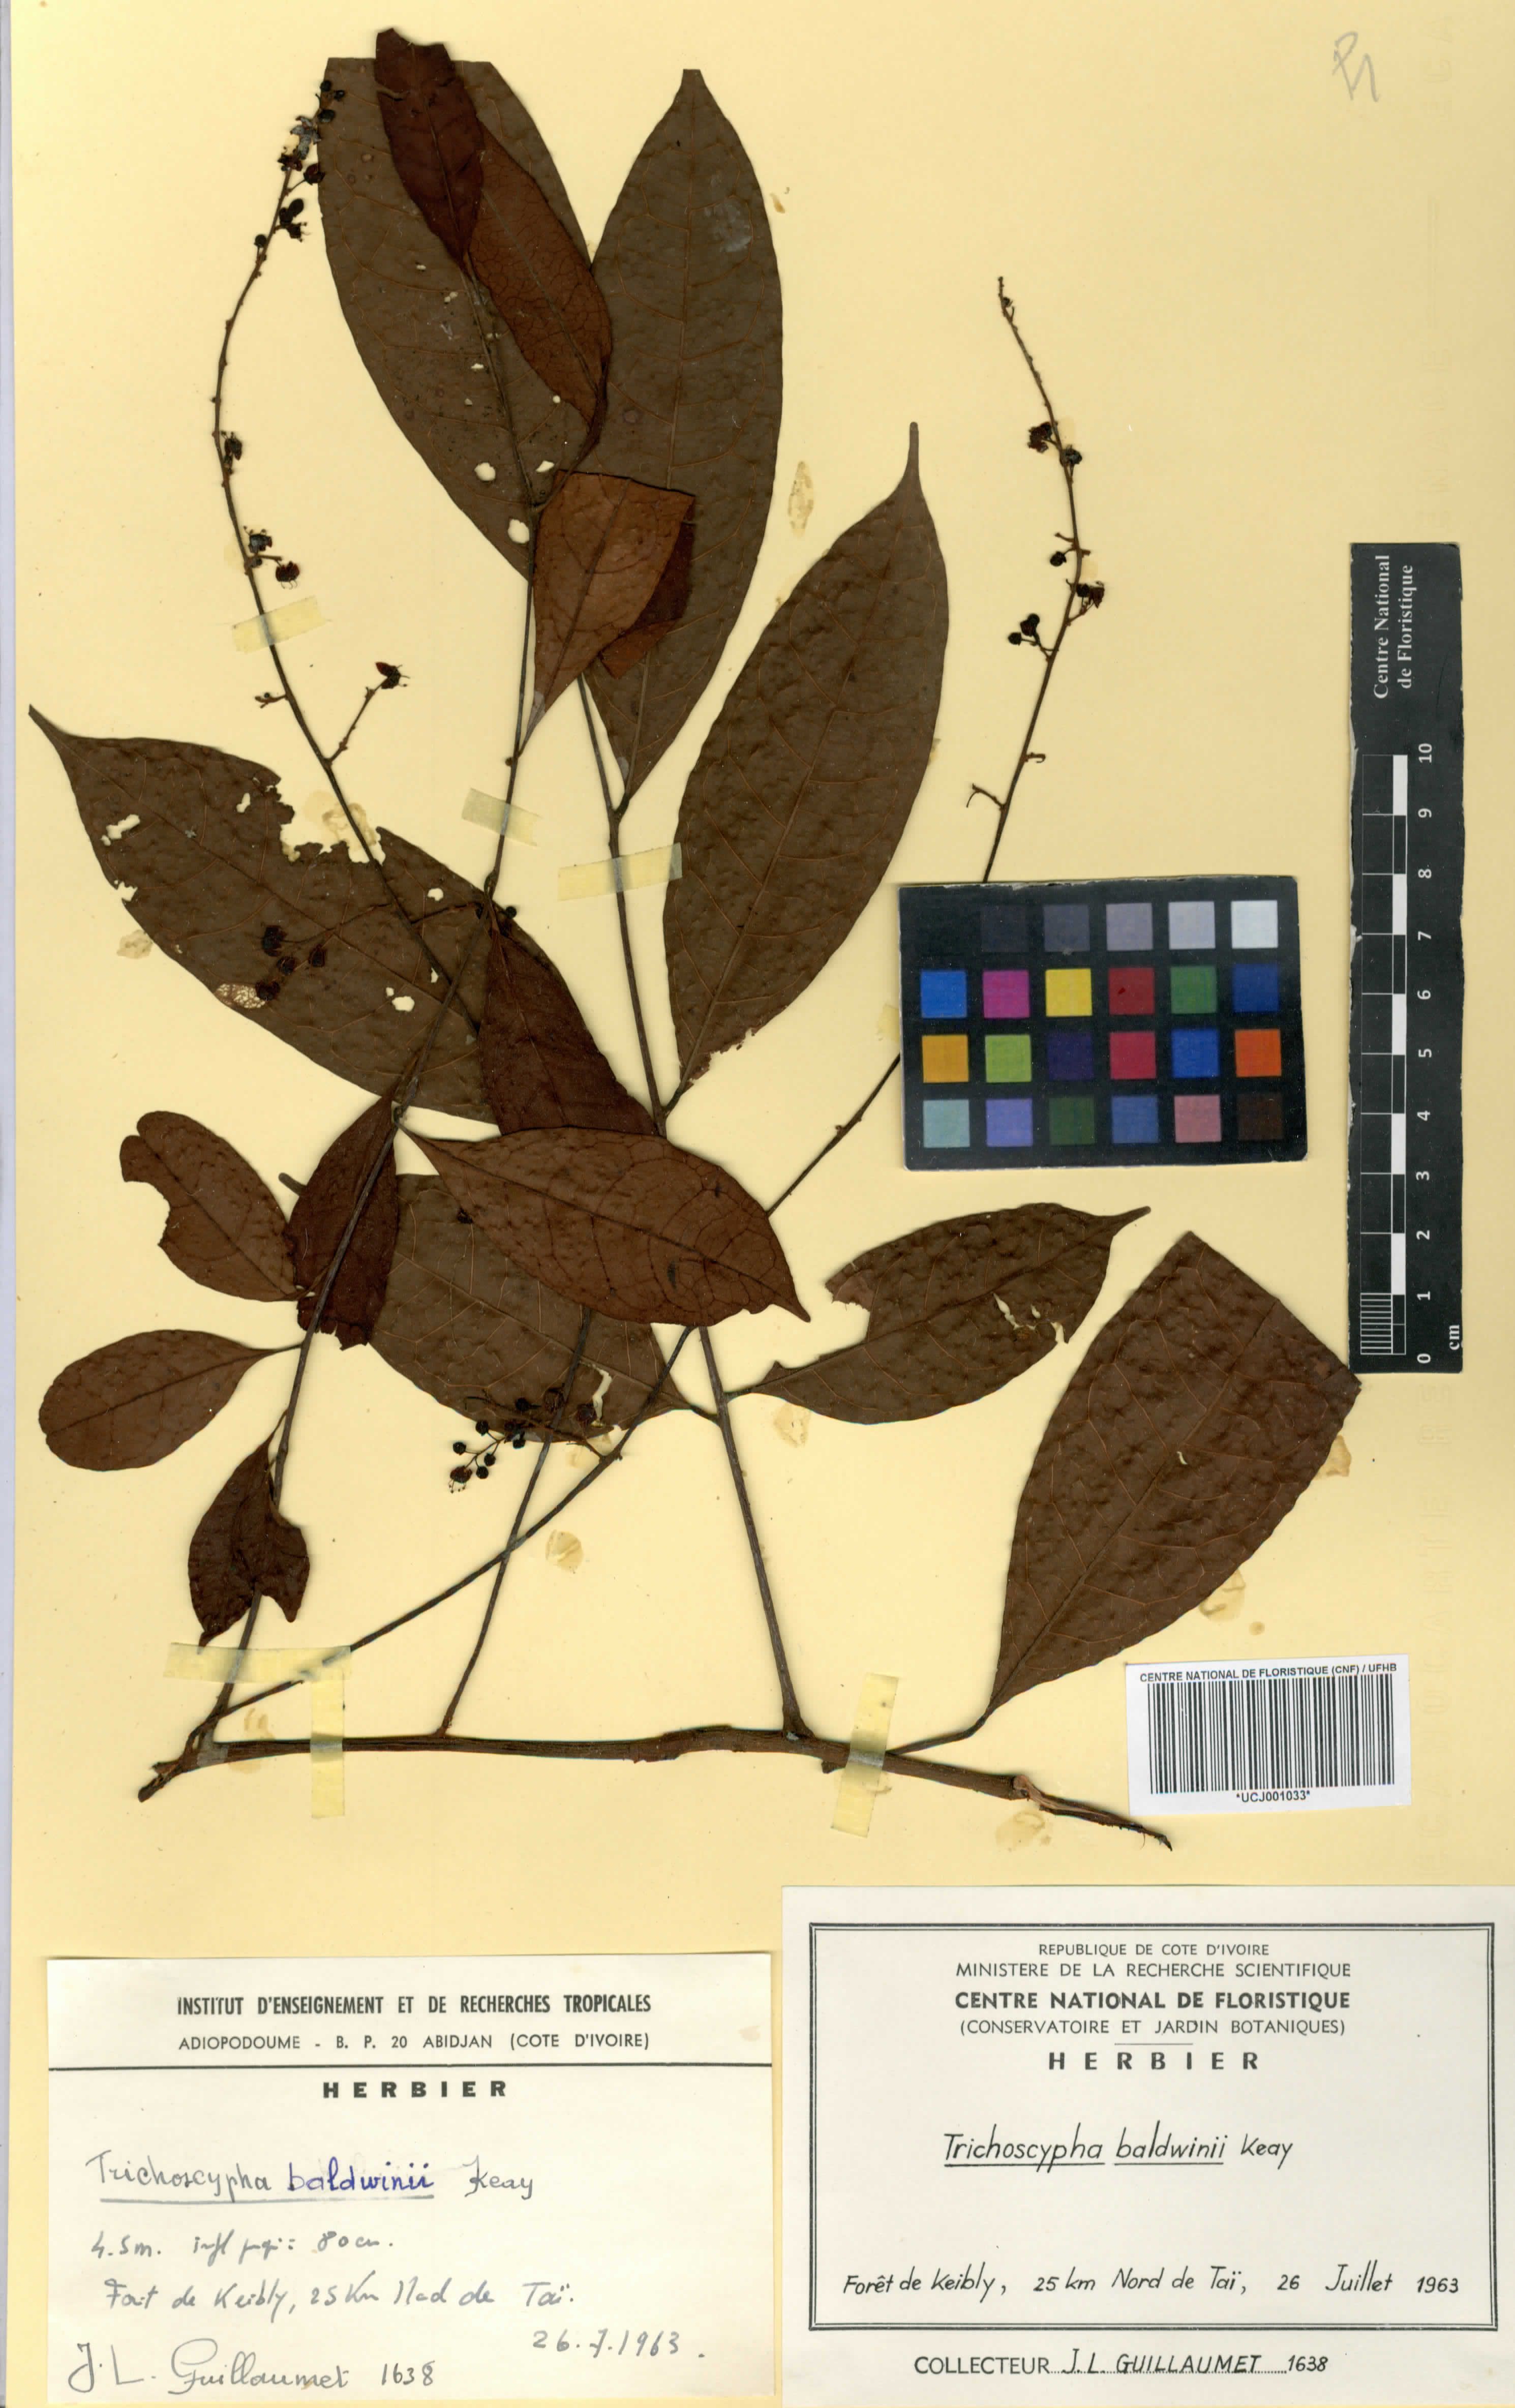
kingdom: Plantae
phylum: Tracheophyta
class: Magnoliopsida
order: Sapindales
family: Anacardiaceae
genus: Trichoscypha
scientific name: Trichoscypha baldwinii
